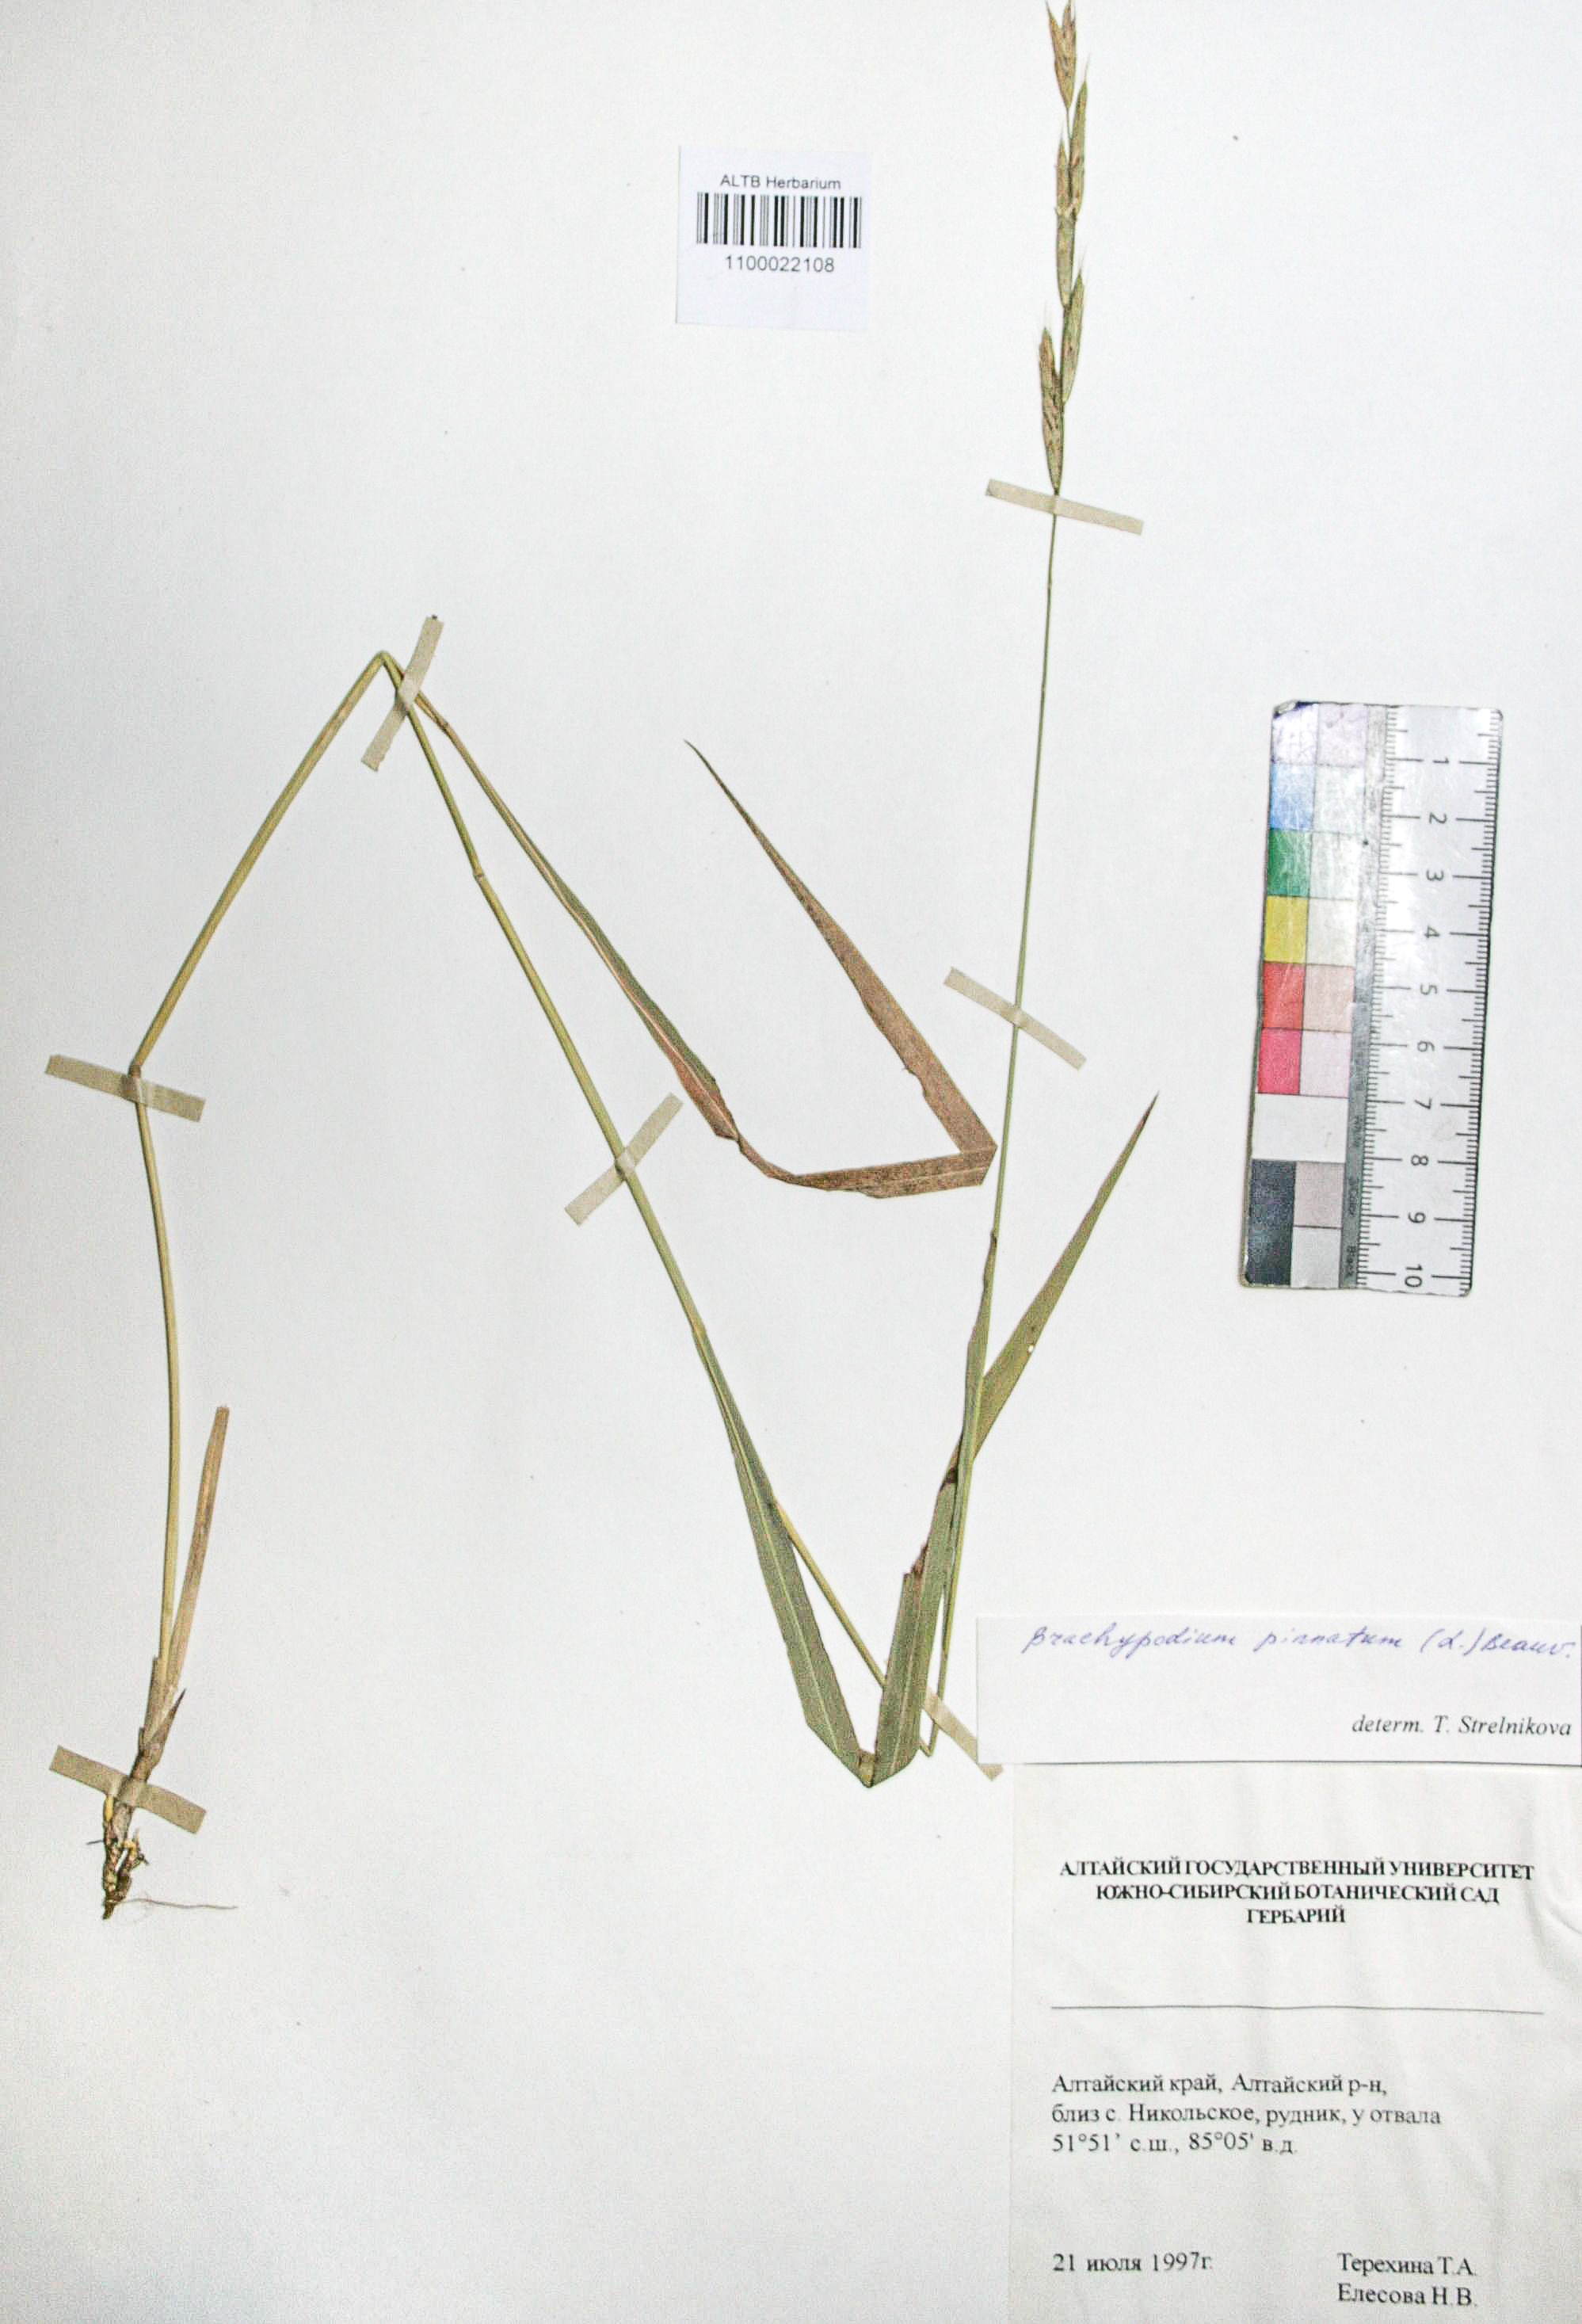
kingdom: Plantae
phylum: Tracheophyta
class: Liliopsida
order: Poales
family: Poaceae
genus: Brachypodium
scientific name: Brachypodium pinnatum
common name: Tor grass
